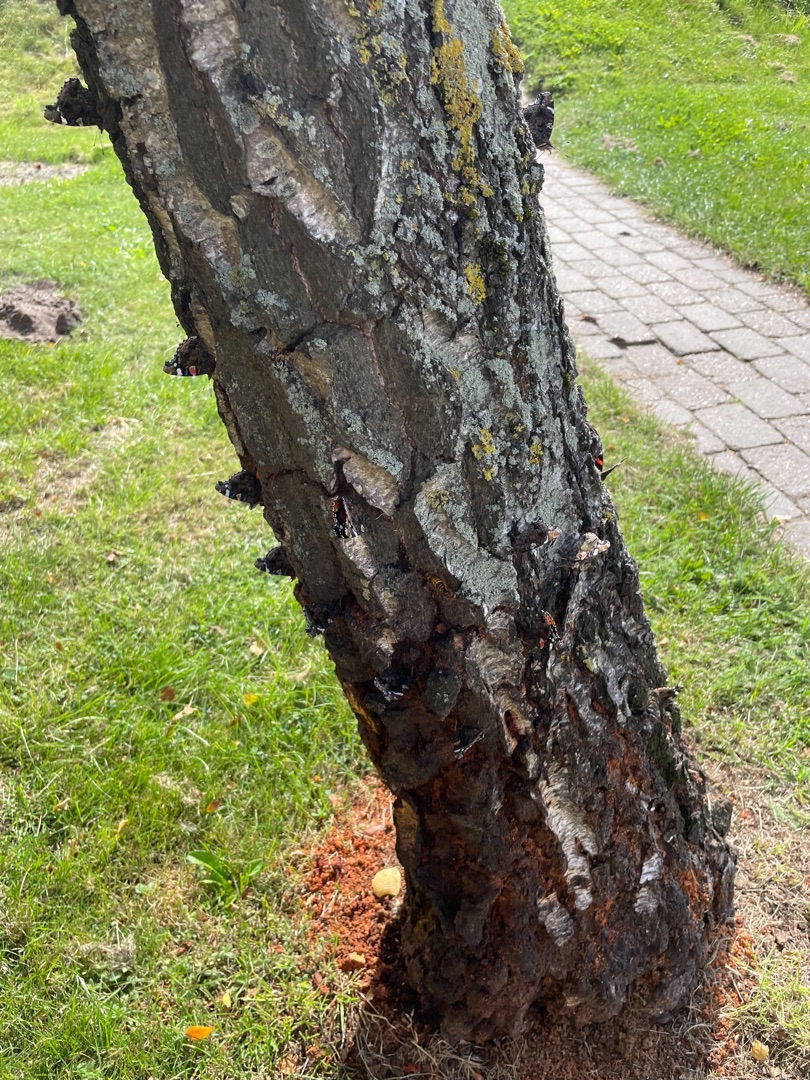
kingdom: Animalia
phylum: Arthropoda
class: Insecta
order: Lepidoptera
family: Nymphalidae
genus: Vanessa
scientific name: Vanessa atalanta
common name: Admiral
